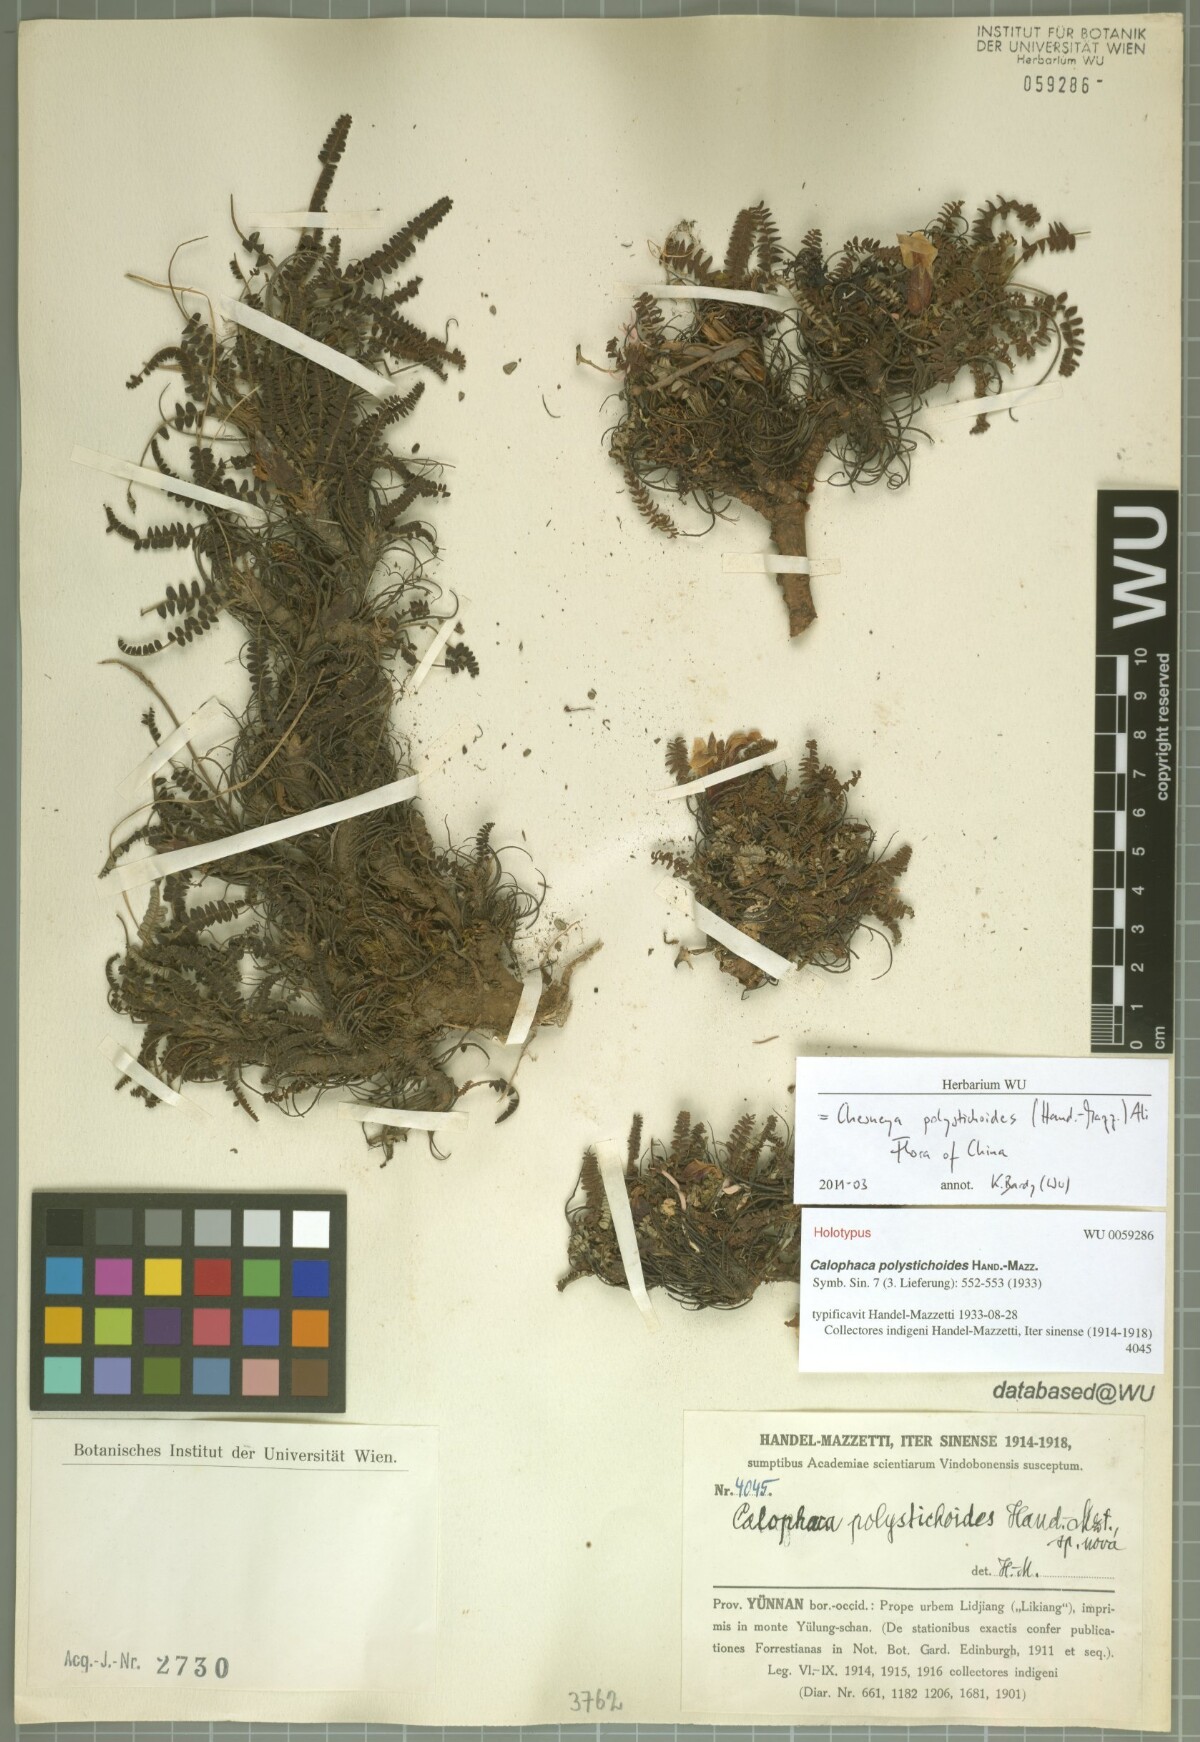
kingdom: Plantae
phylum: Tracheophyta
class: Magnoliopsida
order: Fabales
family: Fabaceae
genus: Chesneya
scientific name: Chesneya polystichoides
